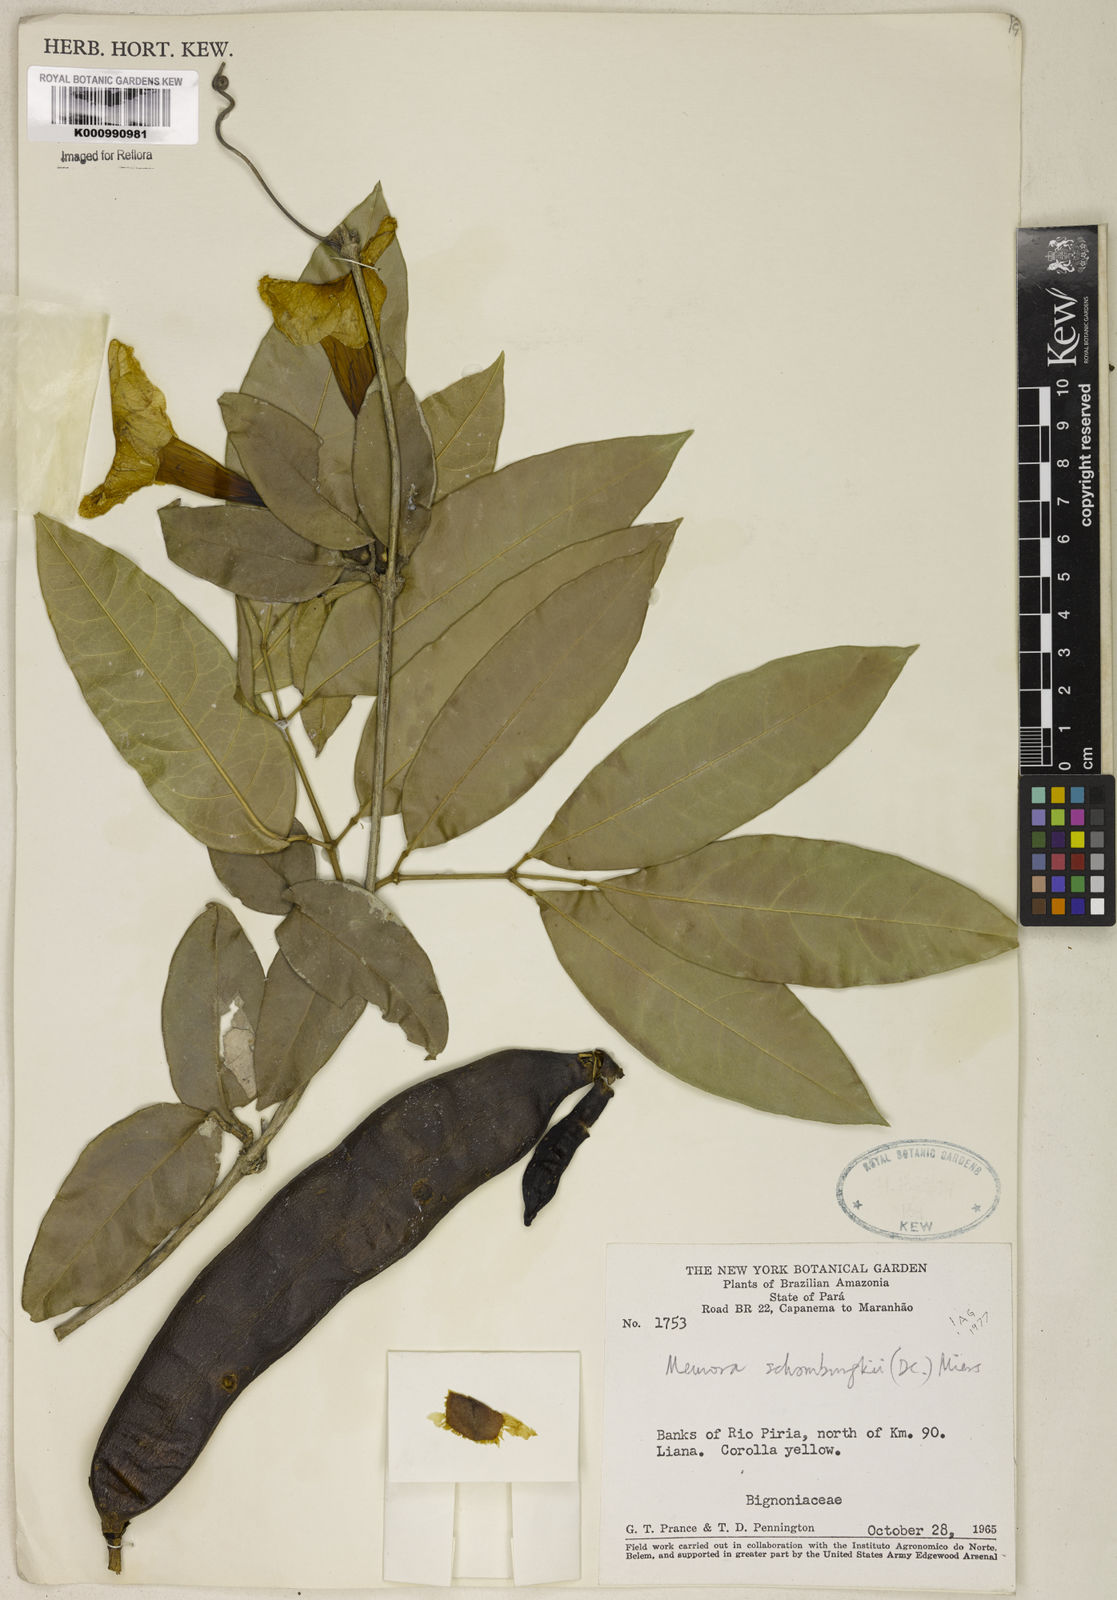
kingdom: Plantae
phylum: Tracheophyta
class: Magnoliopsida
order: Lamiales
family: Bignoniaceae
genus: Adenocalymma
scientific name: Adenocalymma schomburgkii
